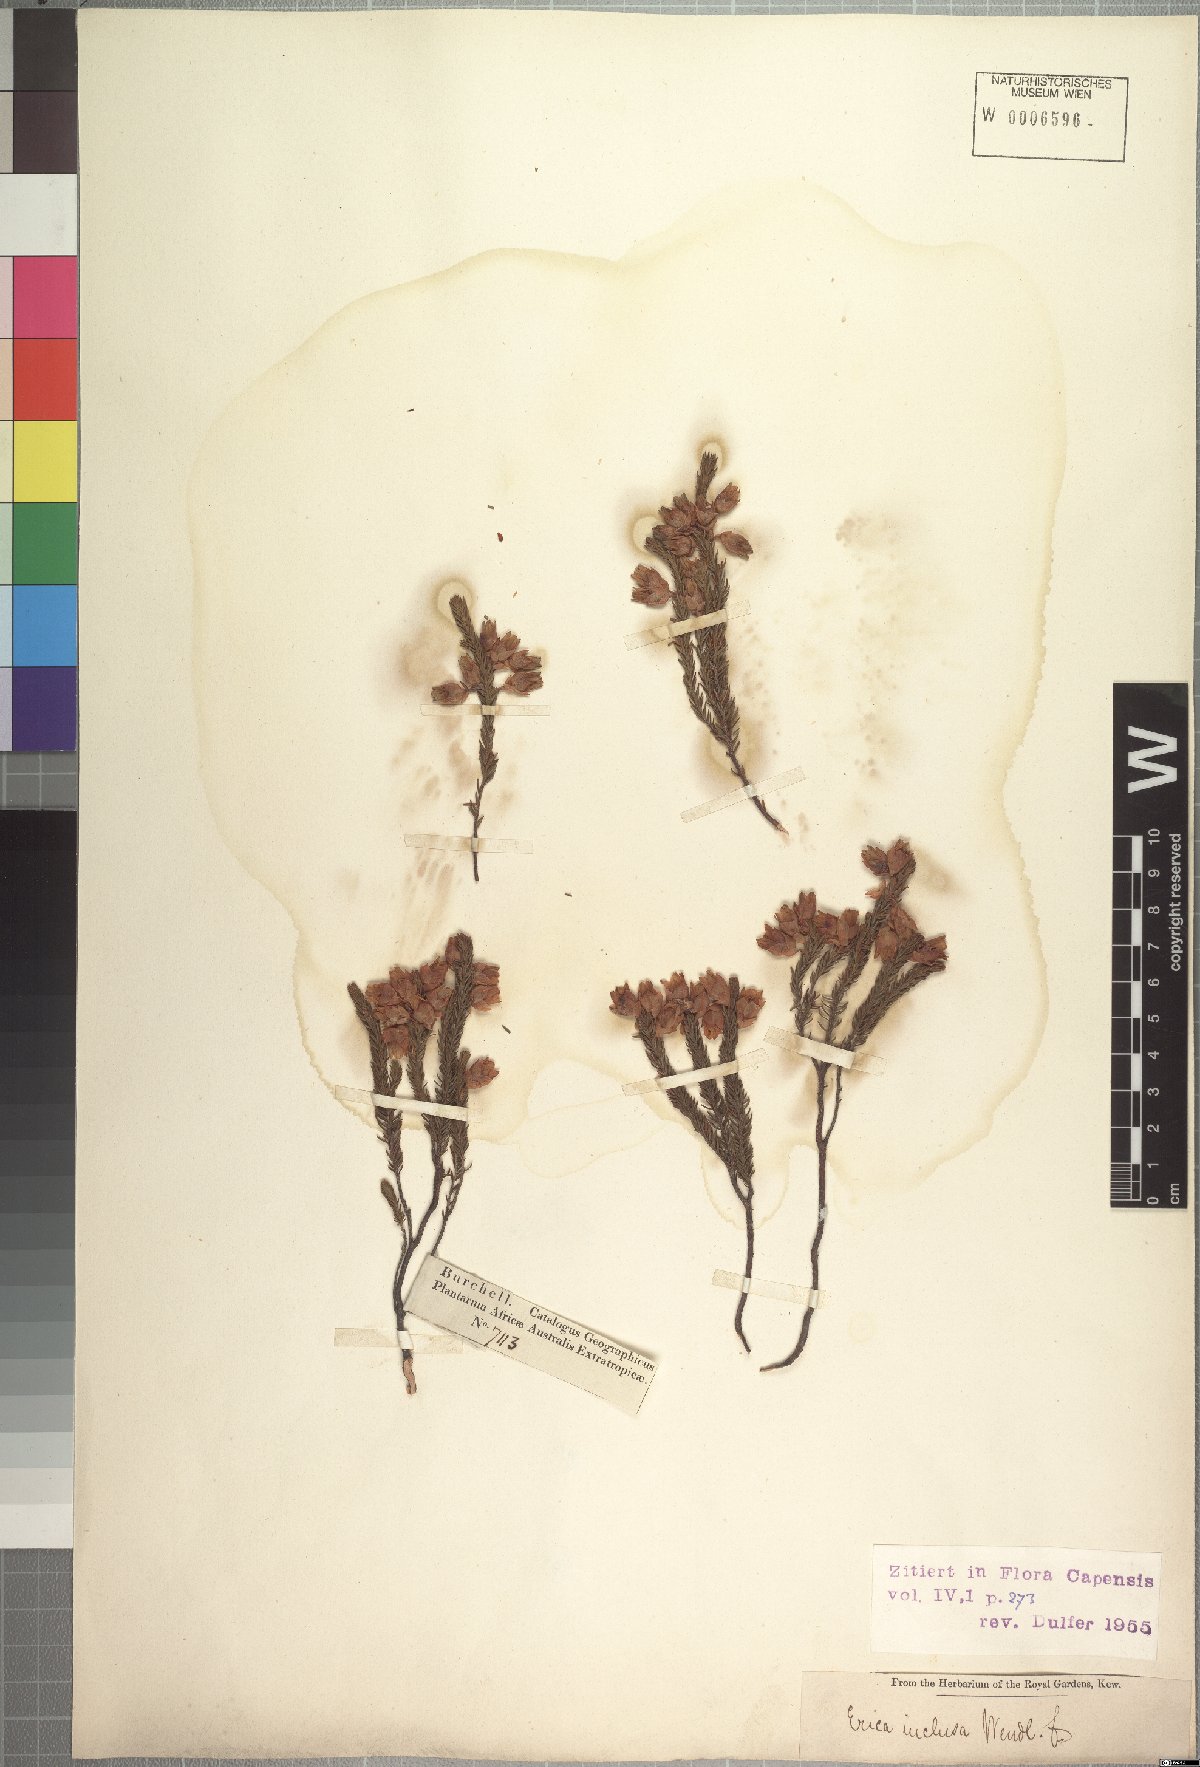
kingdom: Plantae
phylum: Tracheophyta
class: Magnoliopsida
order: Ericales
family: Ericaceae
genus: Erica
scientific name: Erica inclusa
